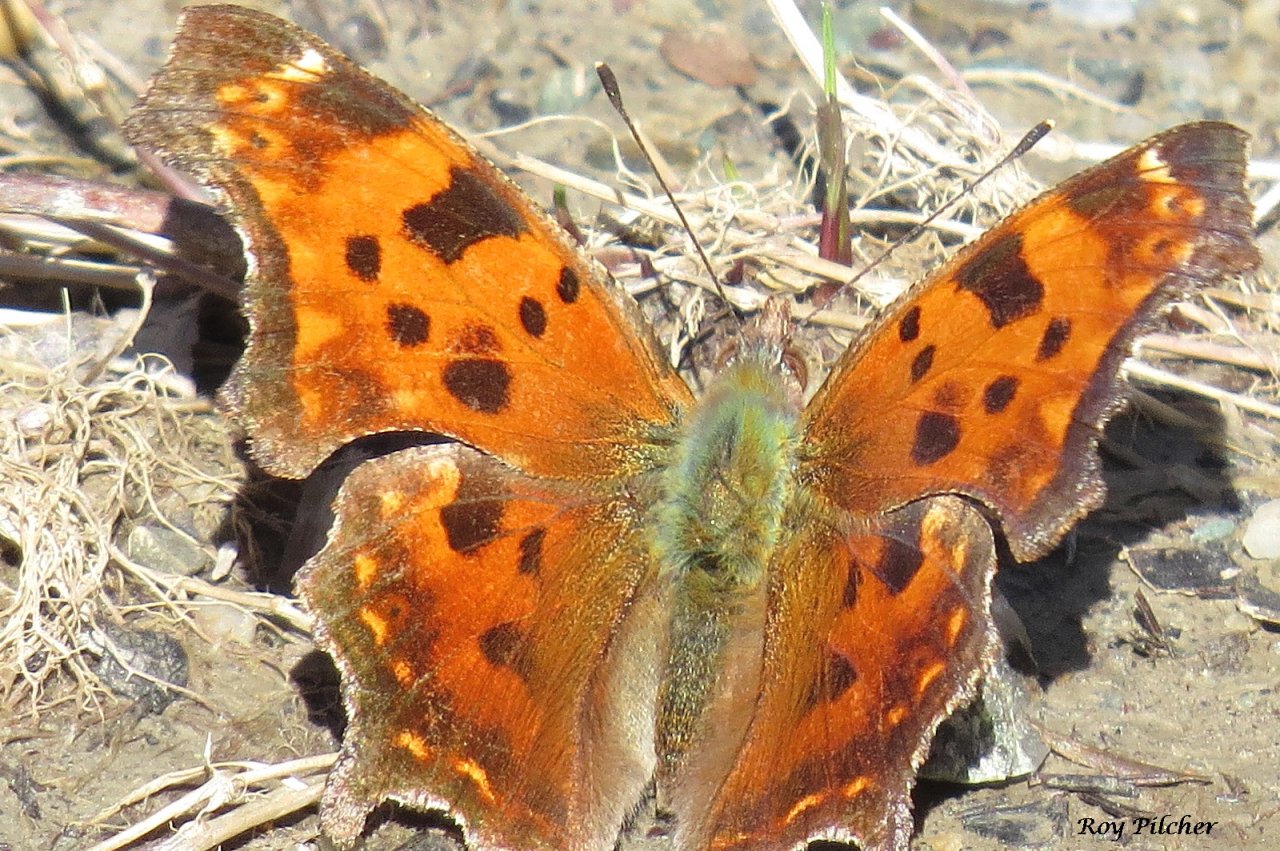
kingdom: Animalia
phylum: Arthropoda
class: Insecta
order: Lepidoptera
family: Nymphalidae
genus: Polygonia
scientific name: Polygonia comma
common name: Eastern Comma
